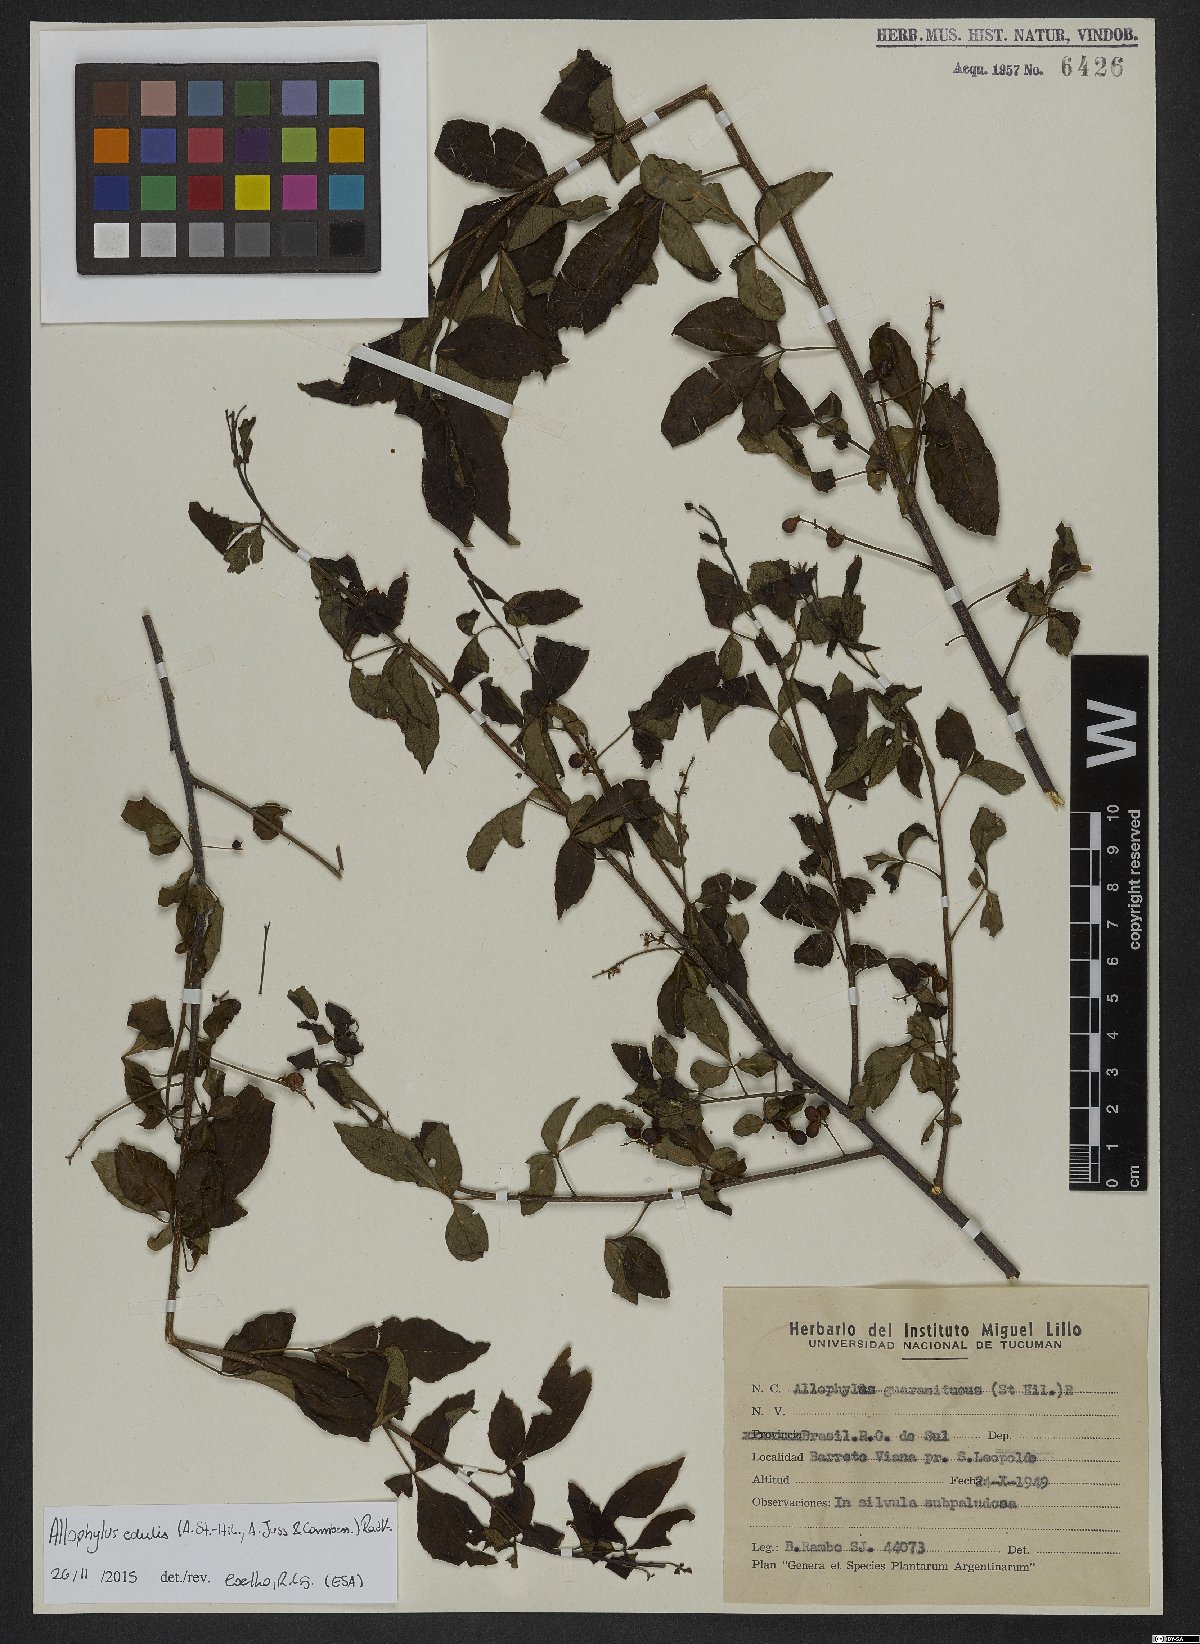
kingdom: Plantae
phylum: Tracheophyta
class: Magnoliopsida
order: Sapindales
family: Sapindaceae
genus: Allophylus
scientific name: Allophylus edulis
